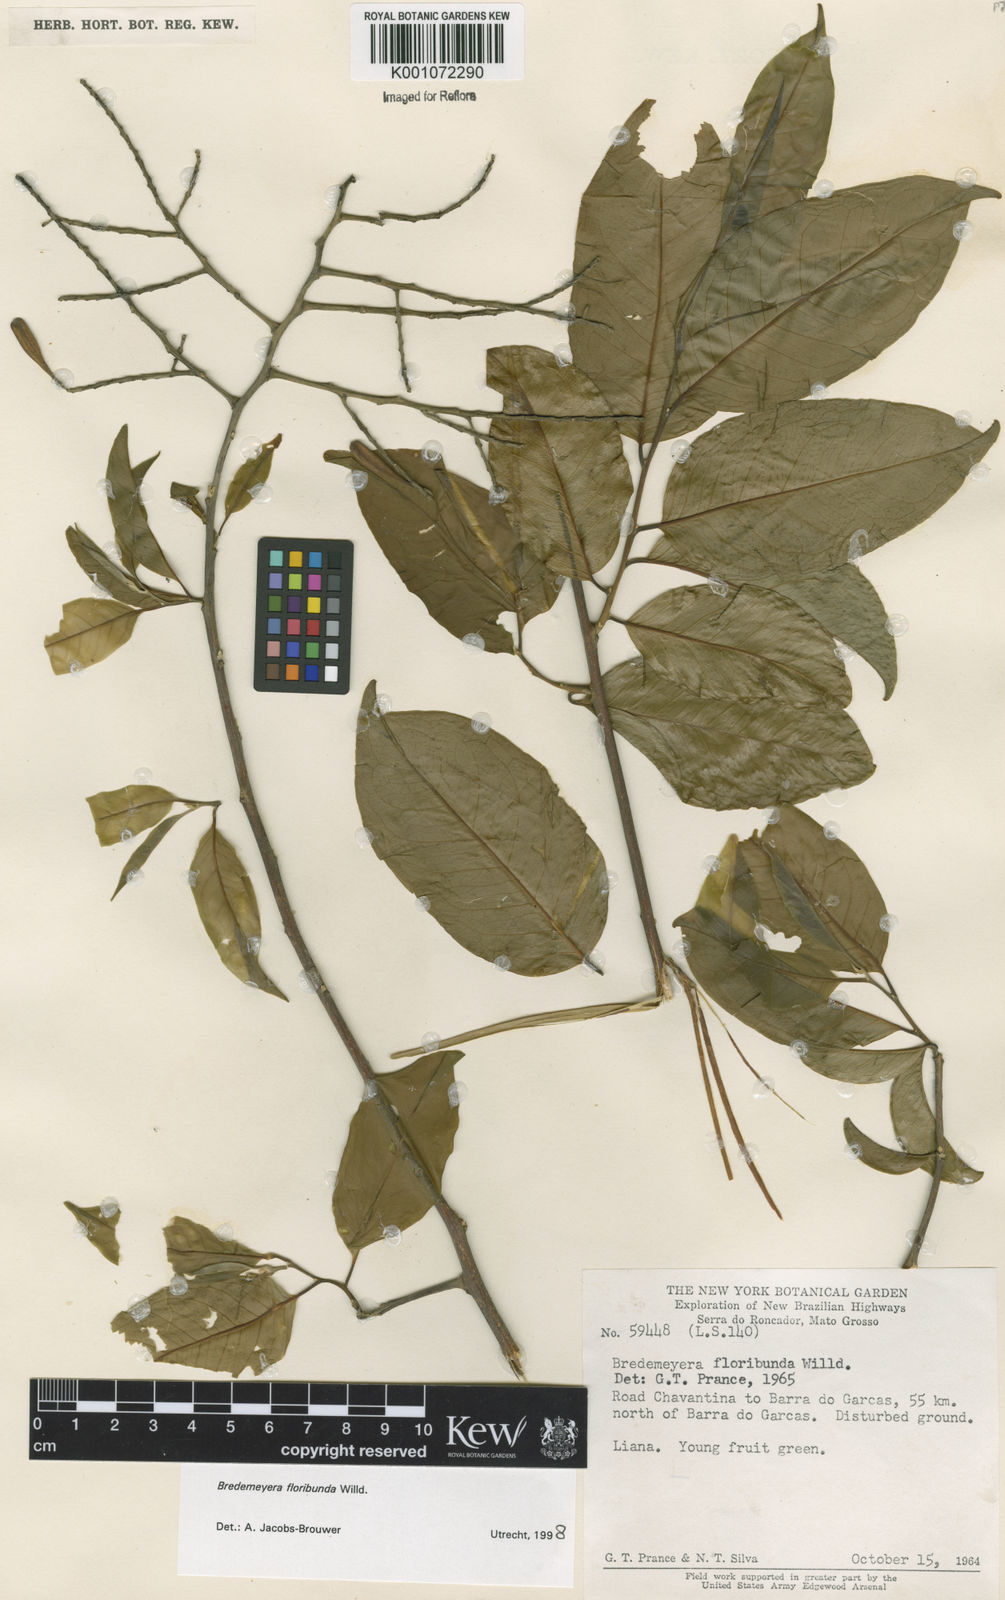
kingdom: Plantae
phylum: Tracheophyta
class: Magnoliopsida
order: Fabales
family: Polygalaceae
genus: Bredemeyera
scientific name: Bredemeyera floribunda
